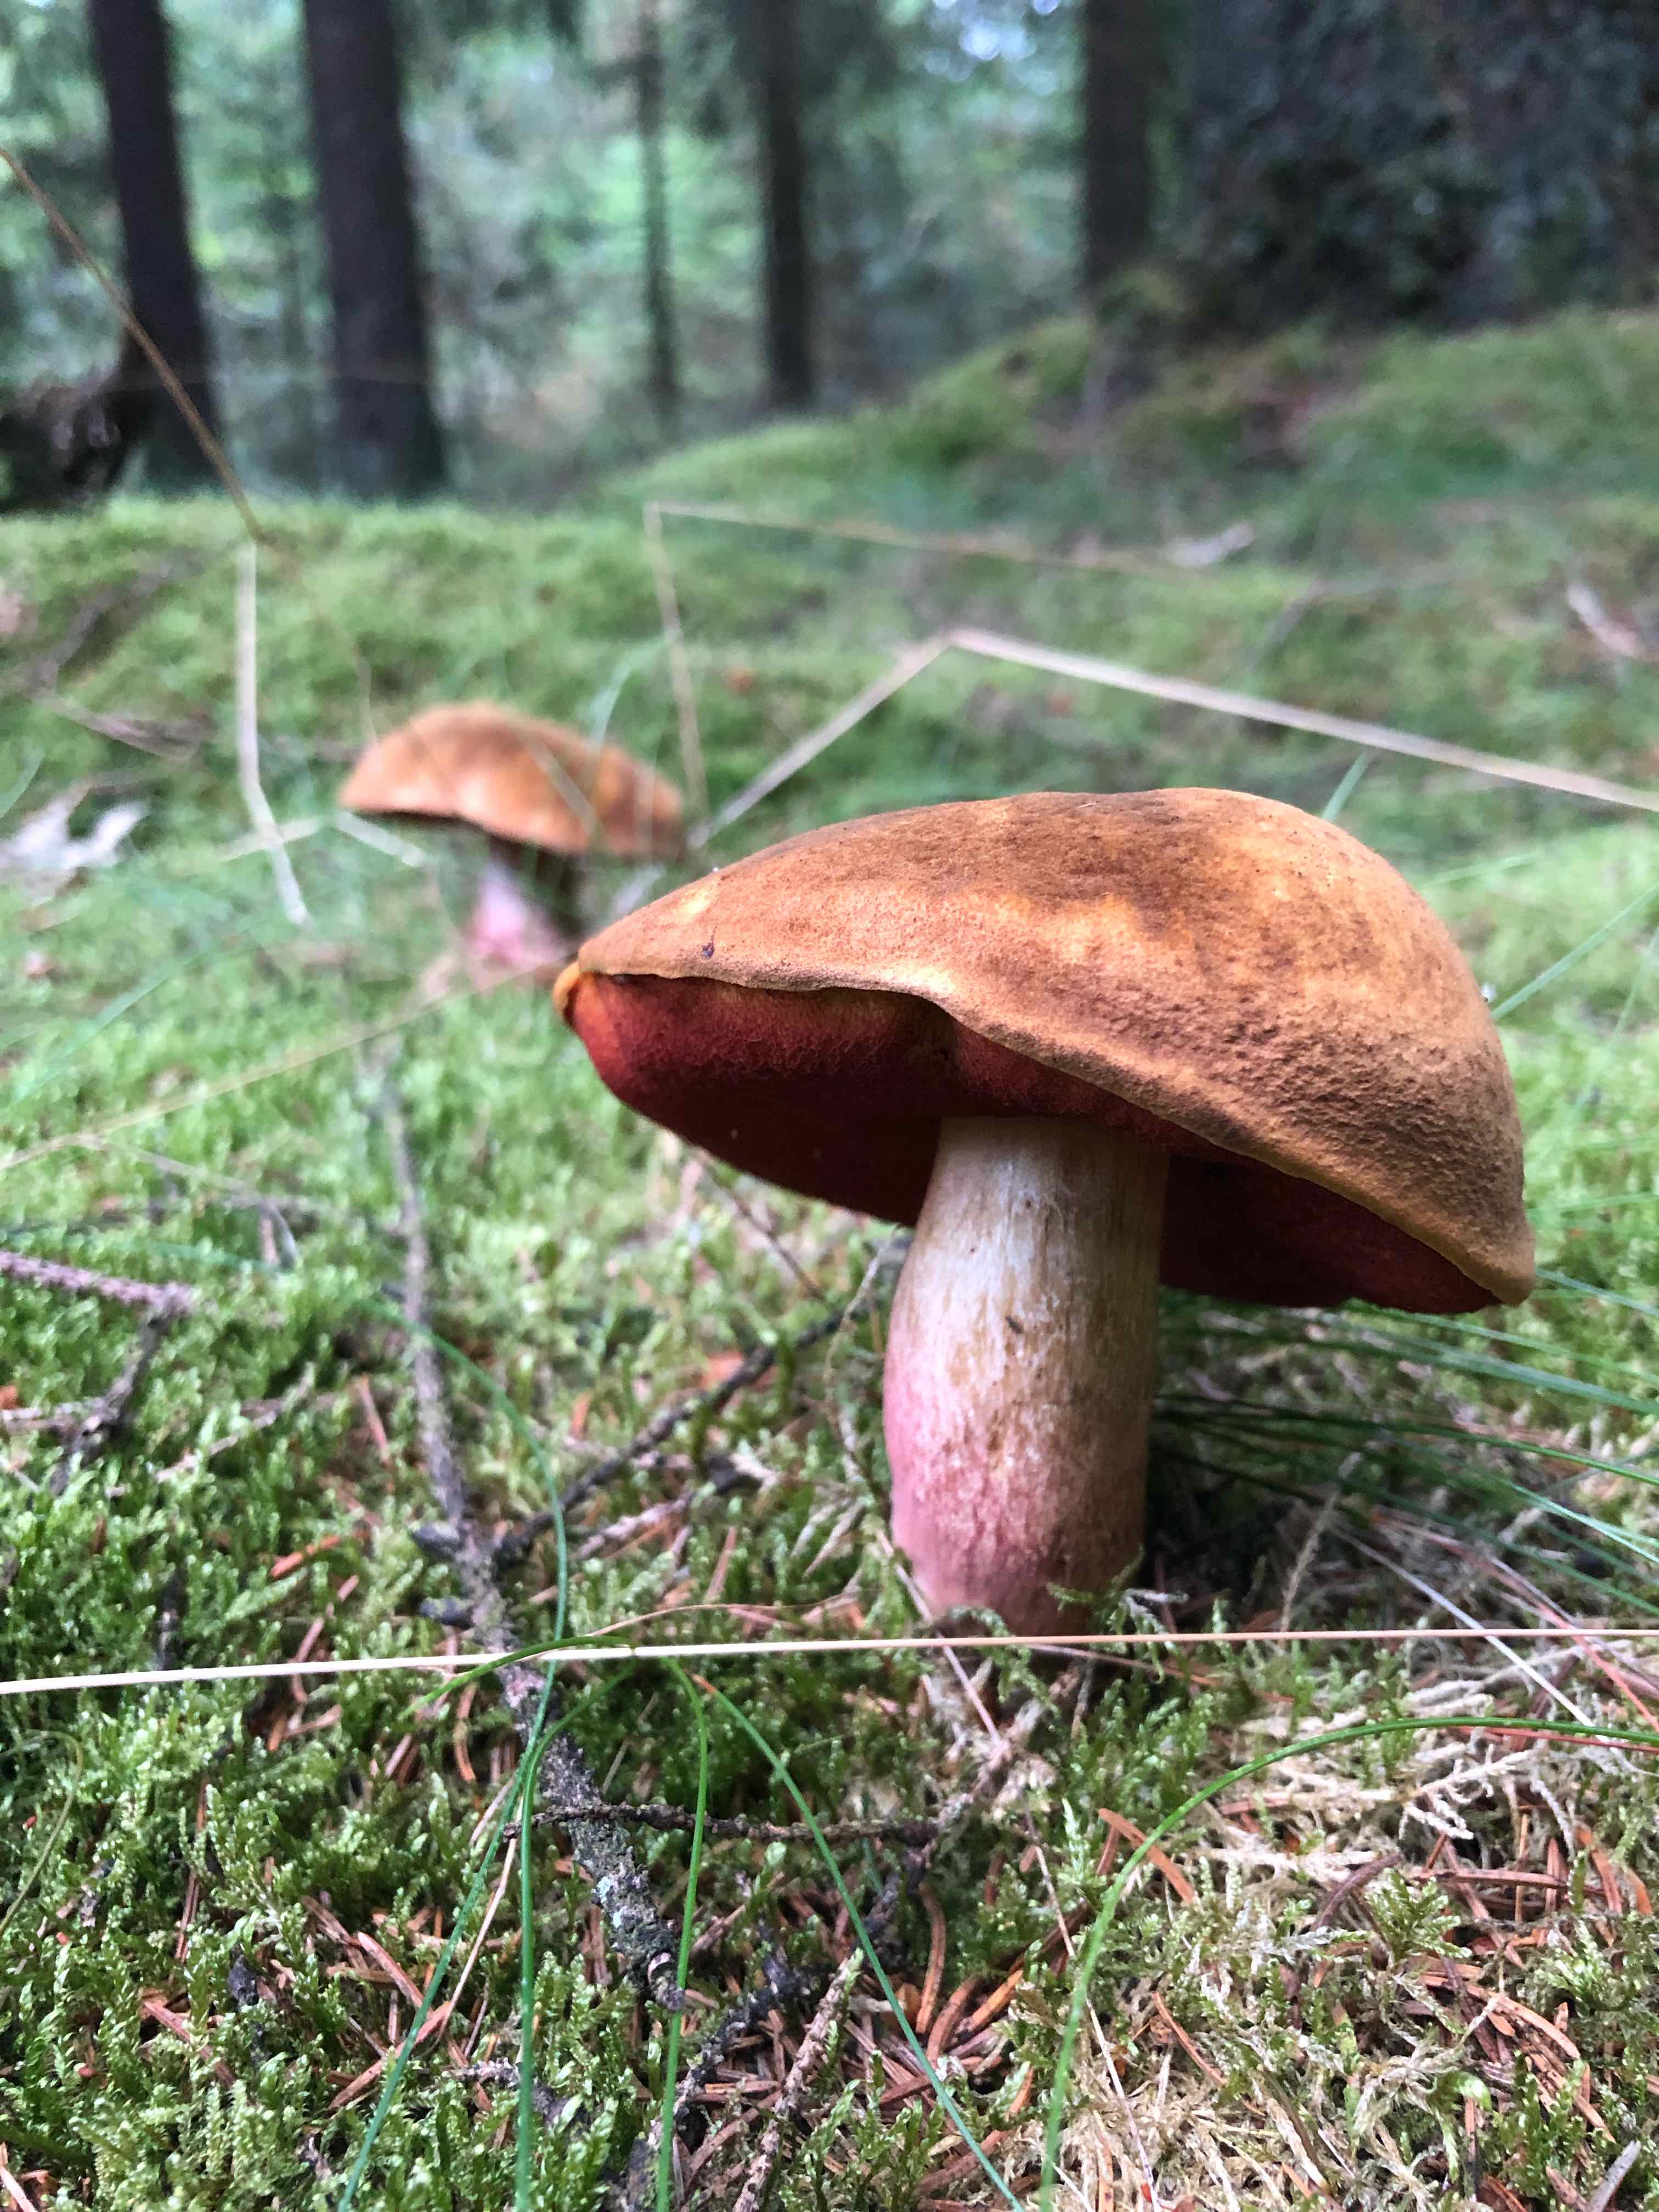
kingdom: Fungi
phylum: Basidiomycota
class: Agaricomycetes
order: Boletales
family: Boletaceae
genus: Neoboletus
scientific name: Neoboletus erythropus
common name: punktstokket indigorørhat
